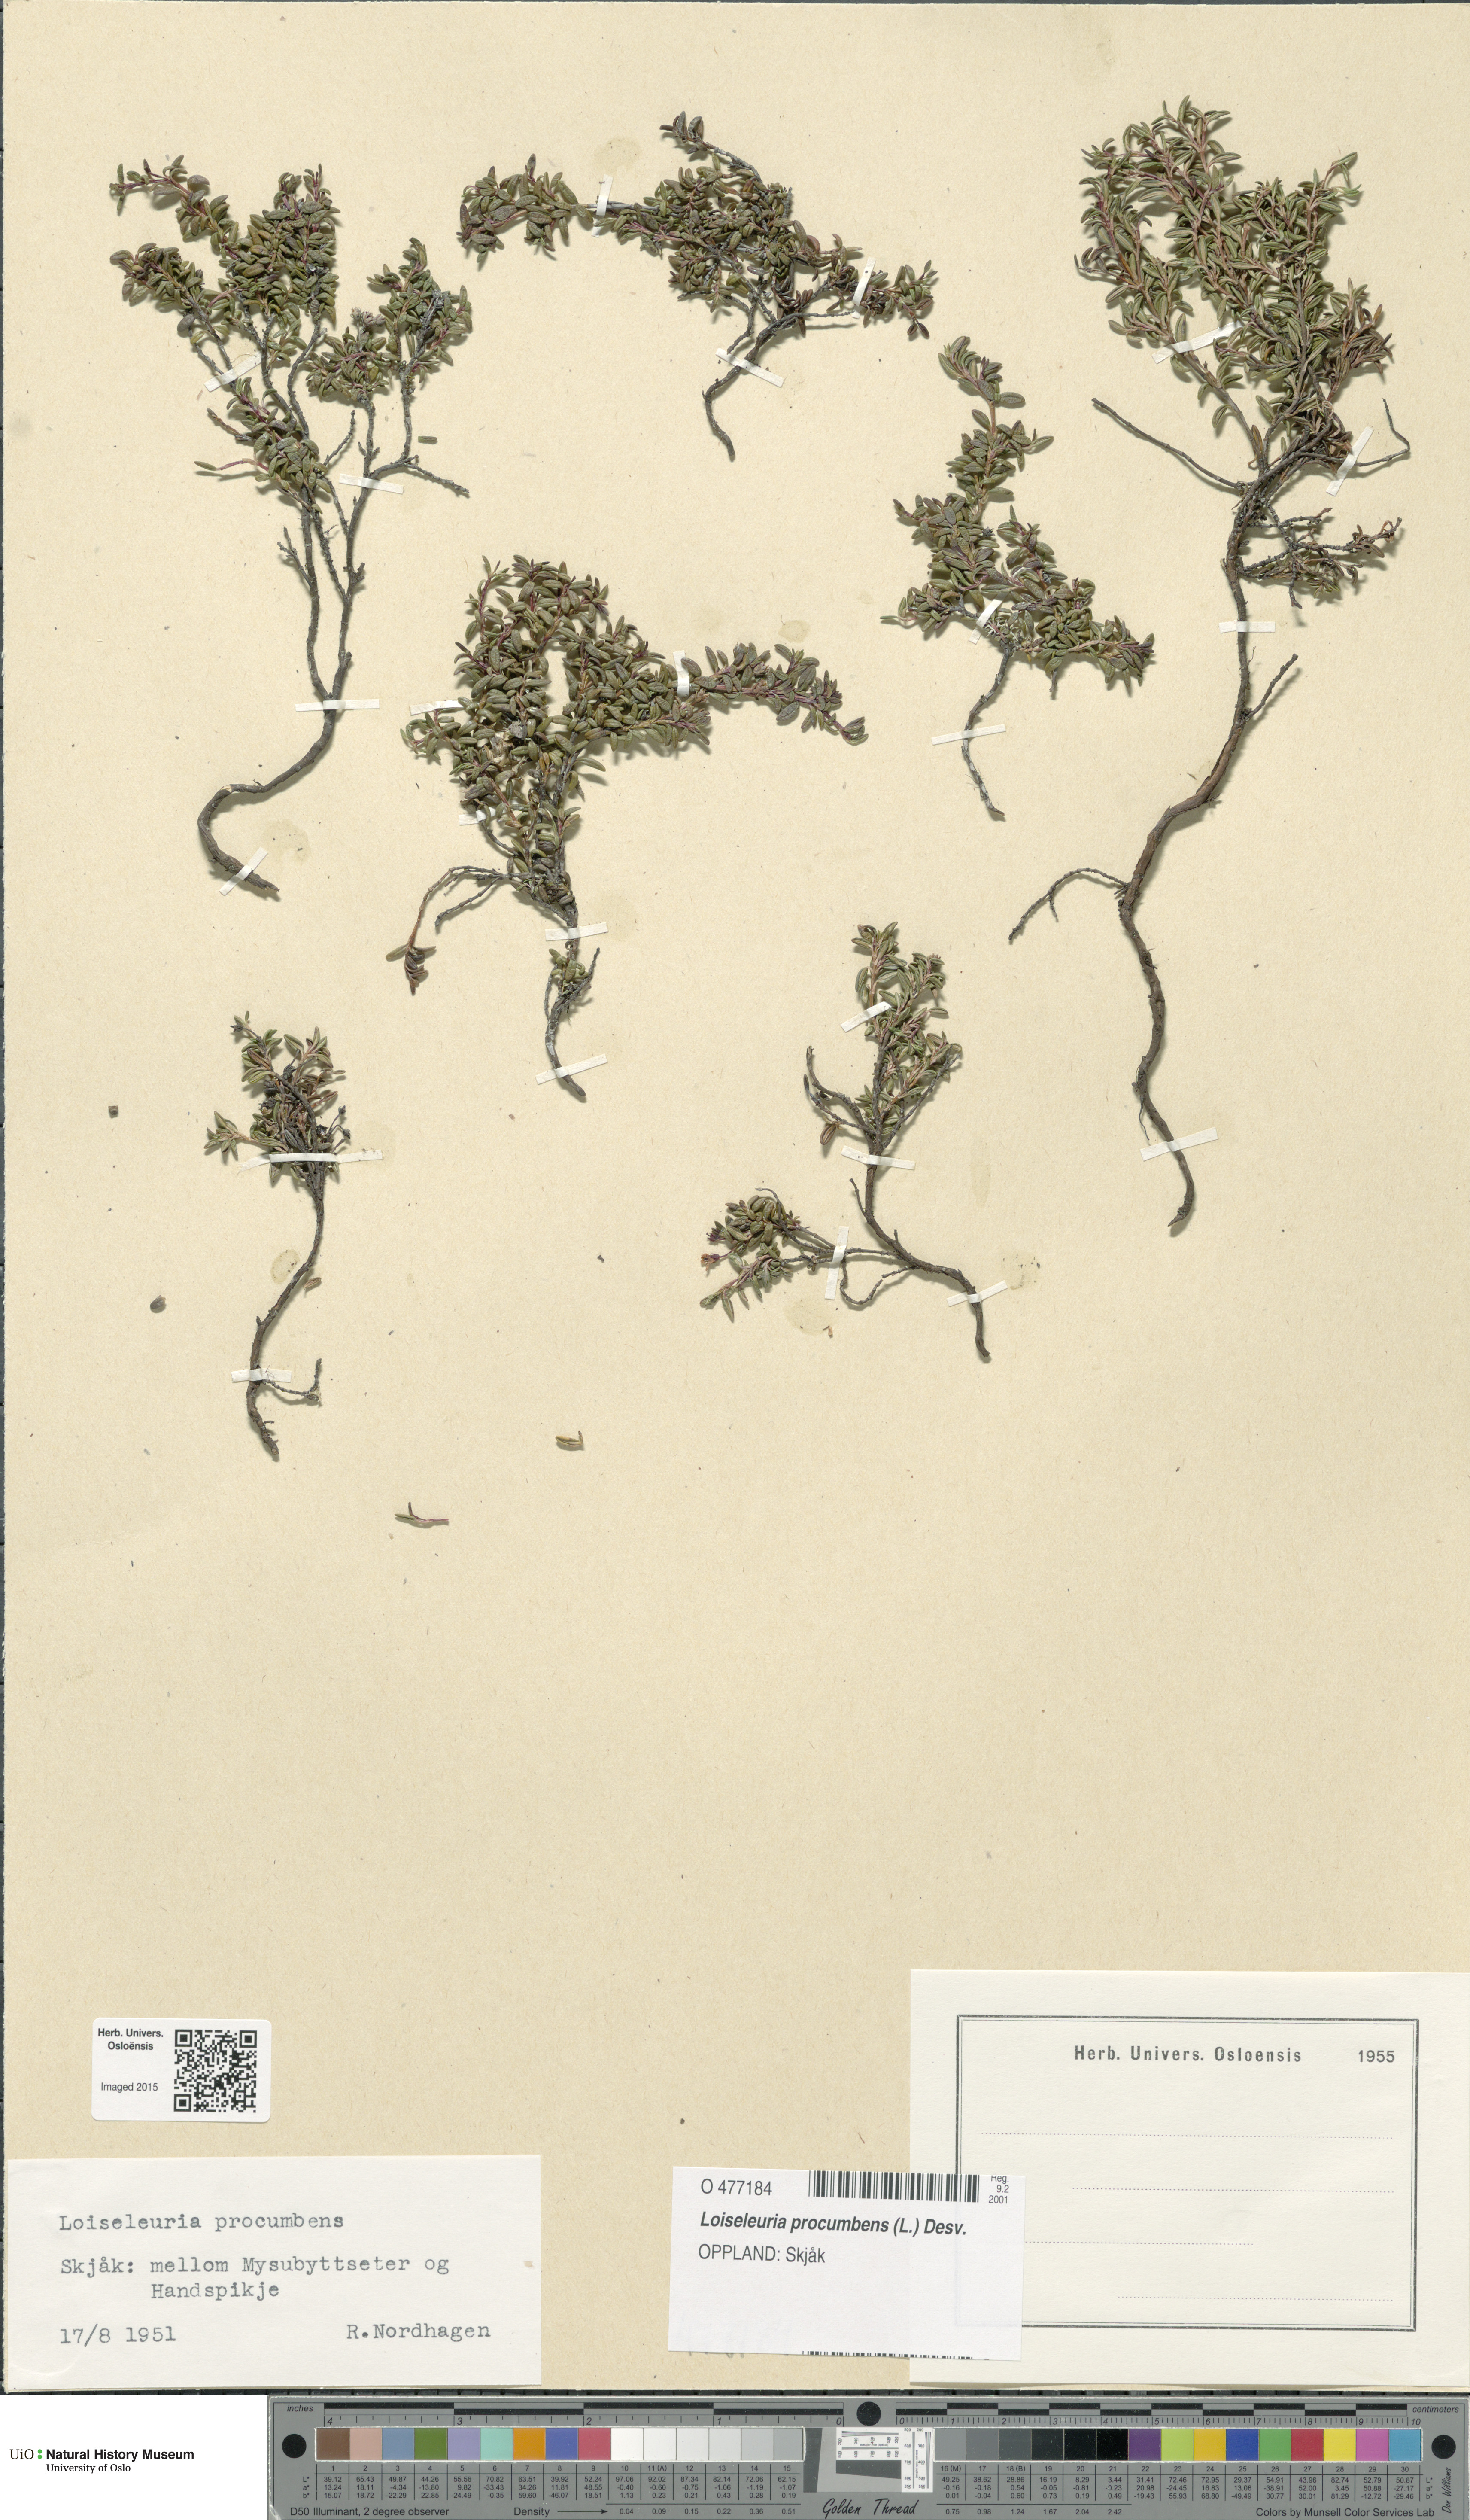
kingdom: Plantae
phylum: Tracheophyta
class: Magnoliopsida
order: Ericales
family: Ericaceae
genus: Kalmia
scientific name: Kalmia procumbens
